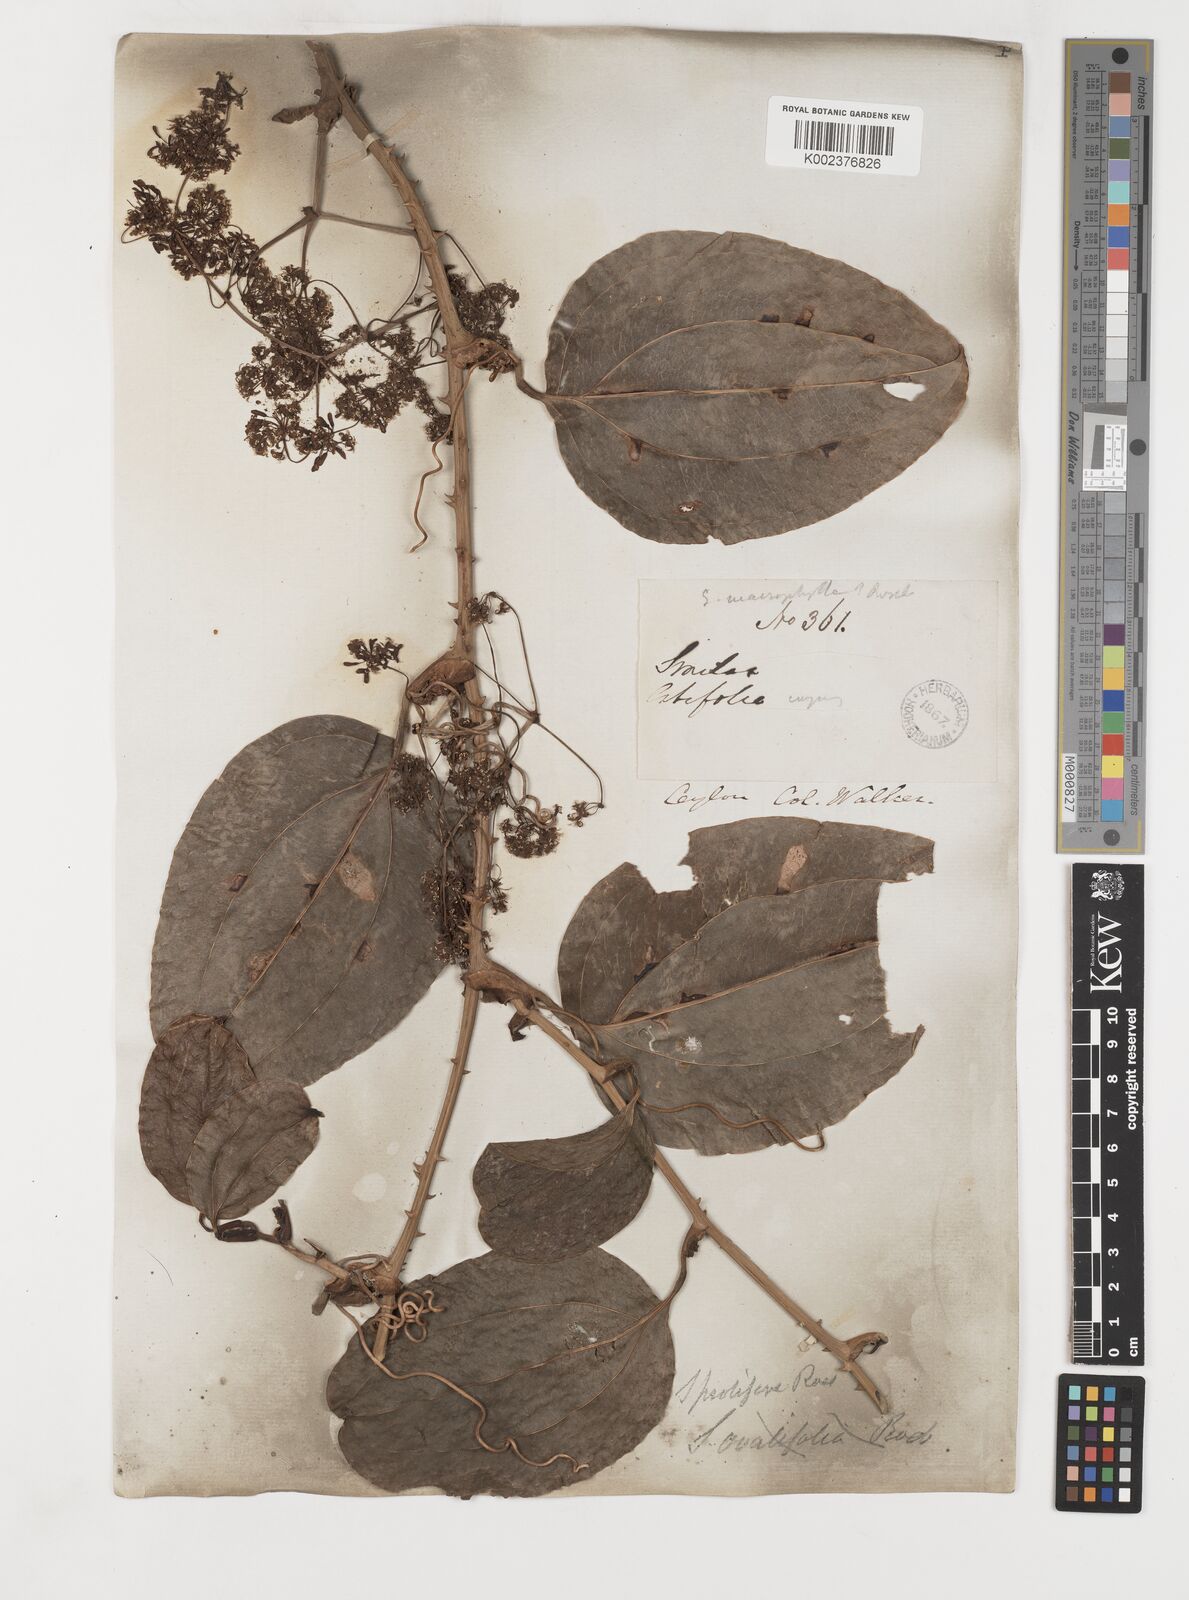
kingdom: Plantae
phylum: Tracheophyta
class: Liliopsida
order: Liliales
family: Smilacaceae
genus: Smilax
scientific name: Smilax prolifera
